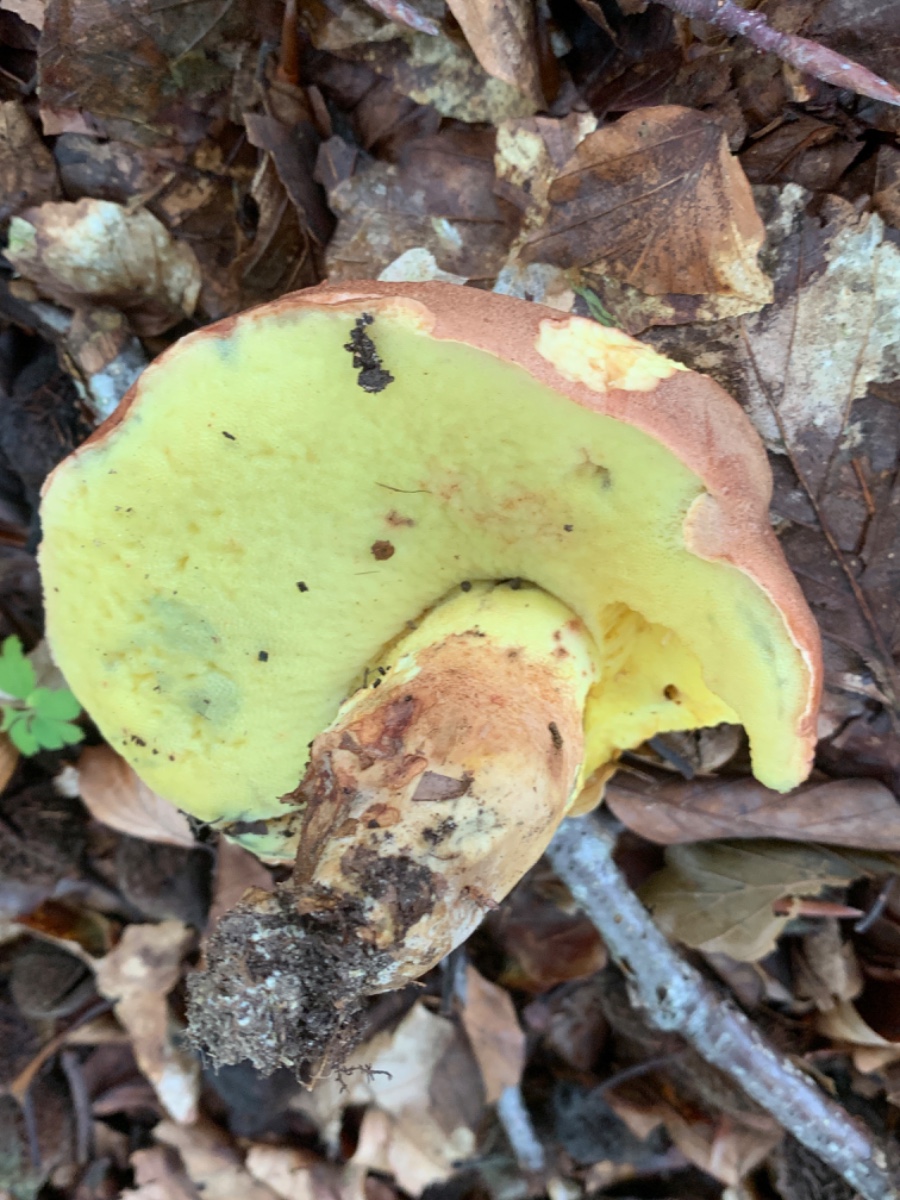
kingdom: Fungi
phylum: Basidiomycota
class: Agaricomycetes
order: Boletales
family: Boletaceae
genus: Butyriboletus
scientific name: Butyriboletus appendiculatus
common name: tenstokket rørhat
